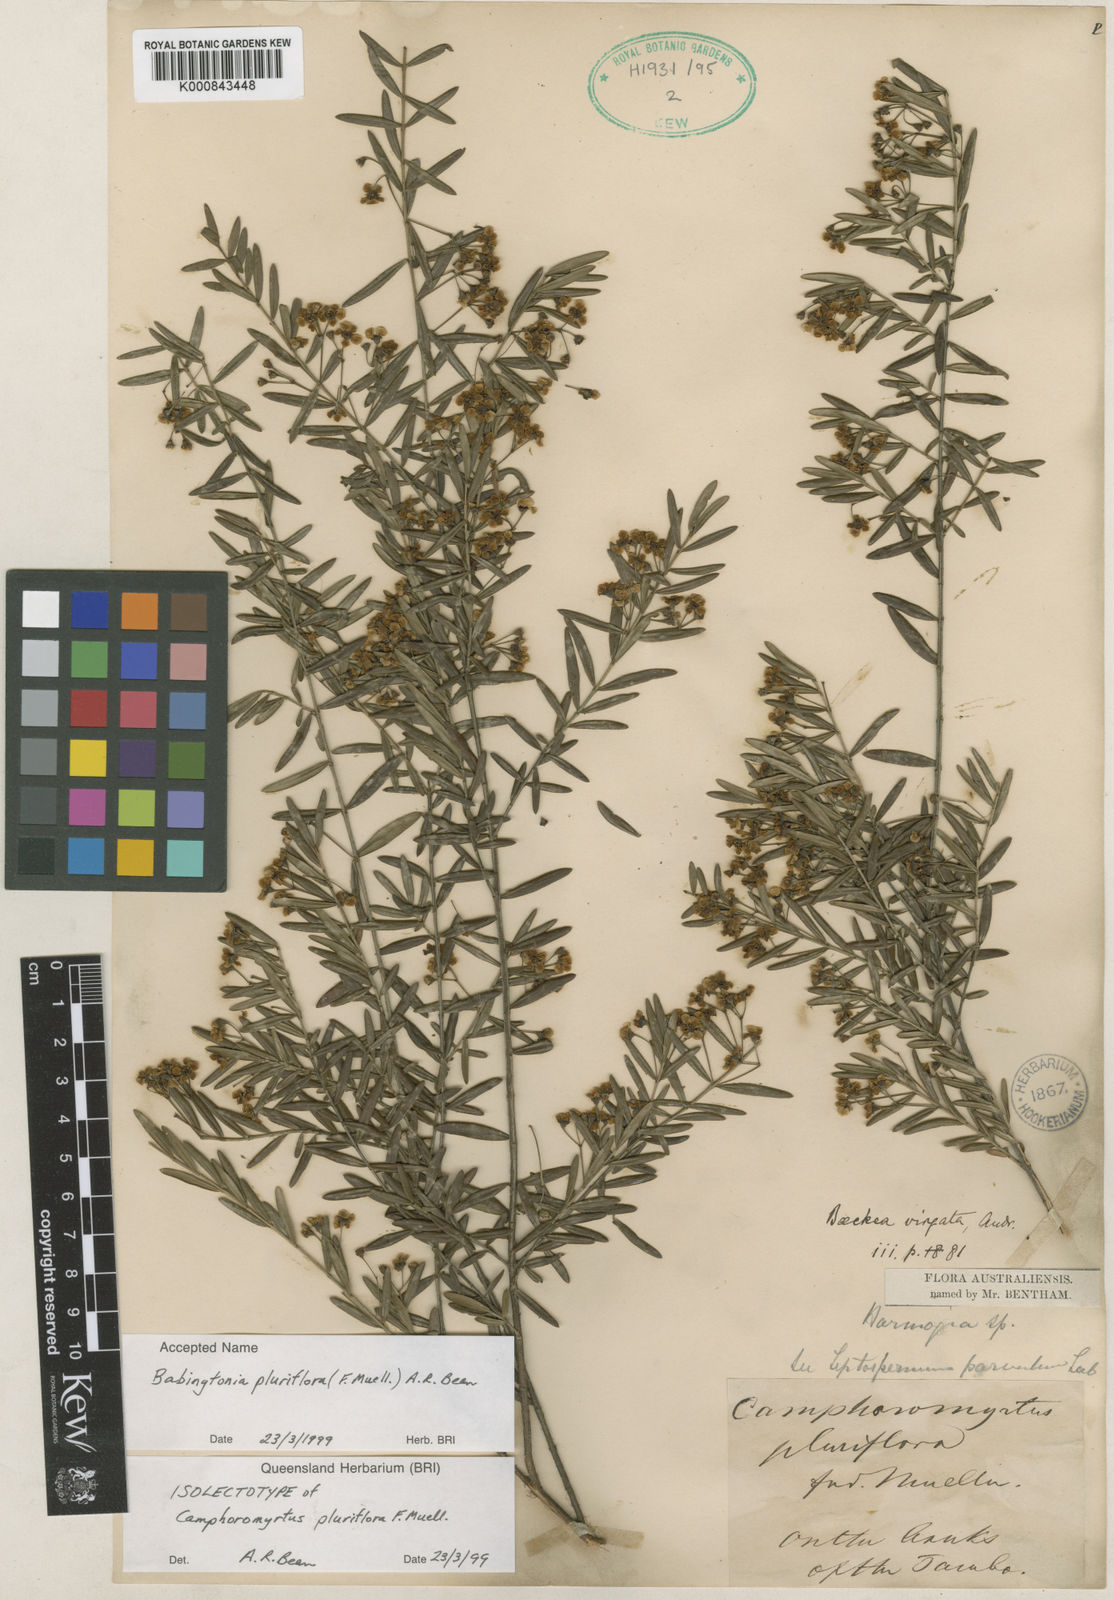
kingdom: Plantae
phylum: Tracheophyta
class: Magnoliopsida
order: Myrtales
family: Myrtaceae
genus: Babingtonia
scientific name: Babingtonia
